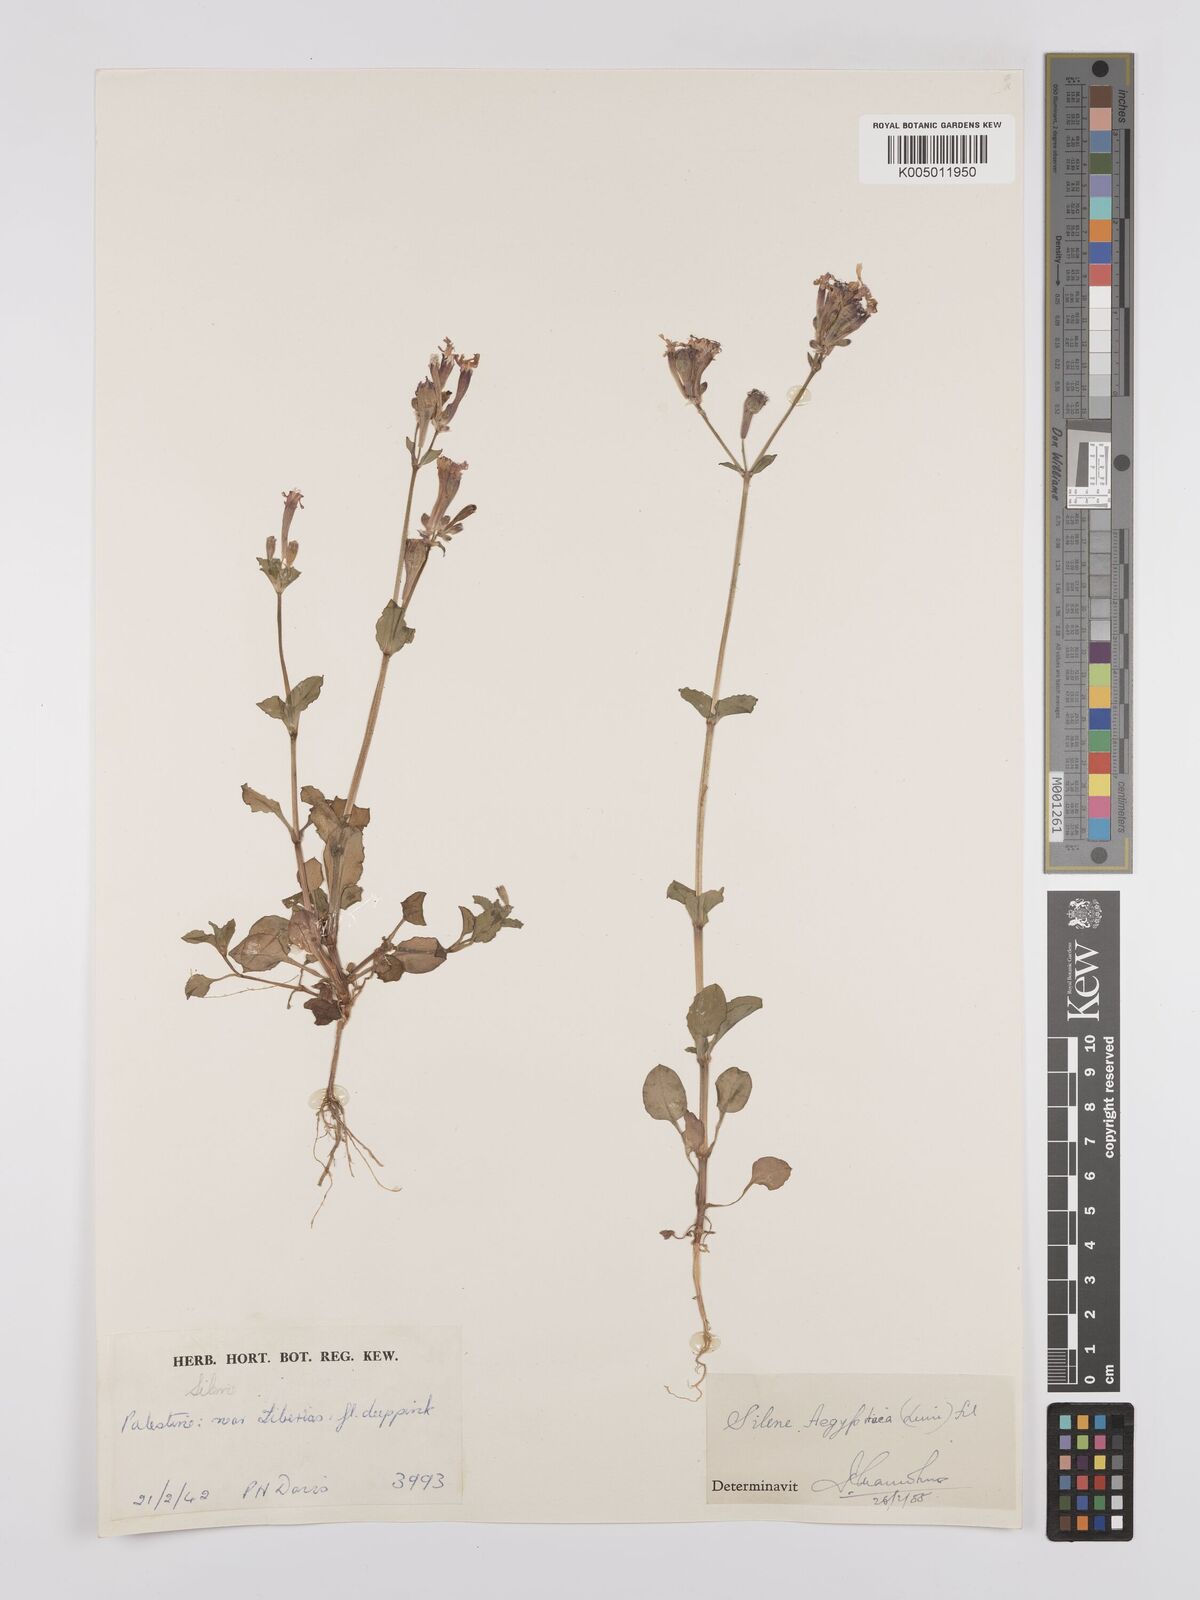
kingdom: Plantae
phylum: Tracheophyta
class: Magnoliopsida
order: Caryophyllales
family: Caryophyllaceae
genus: Silene
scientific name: Silene aegyptiaca
